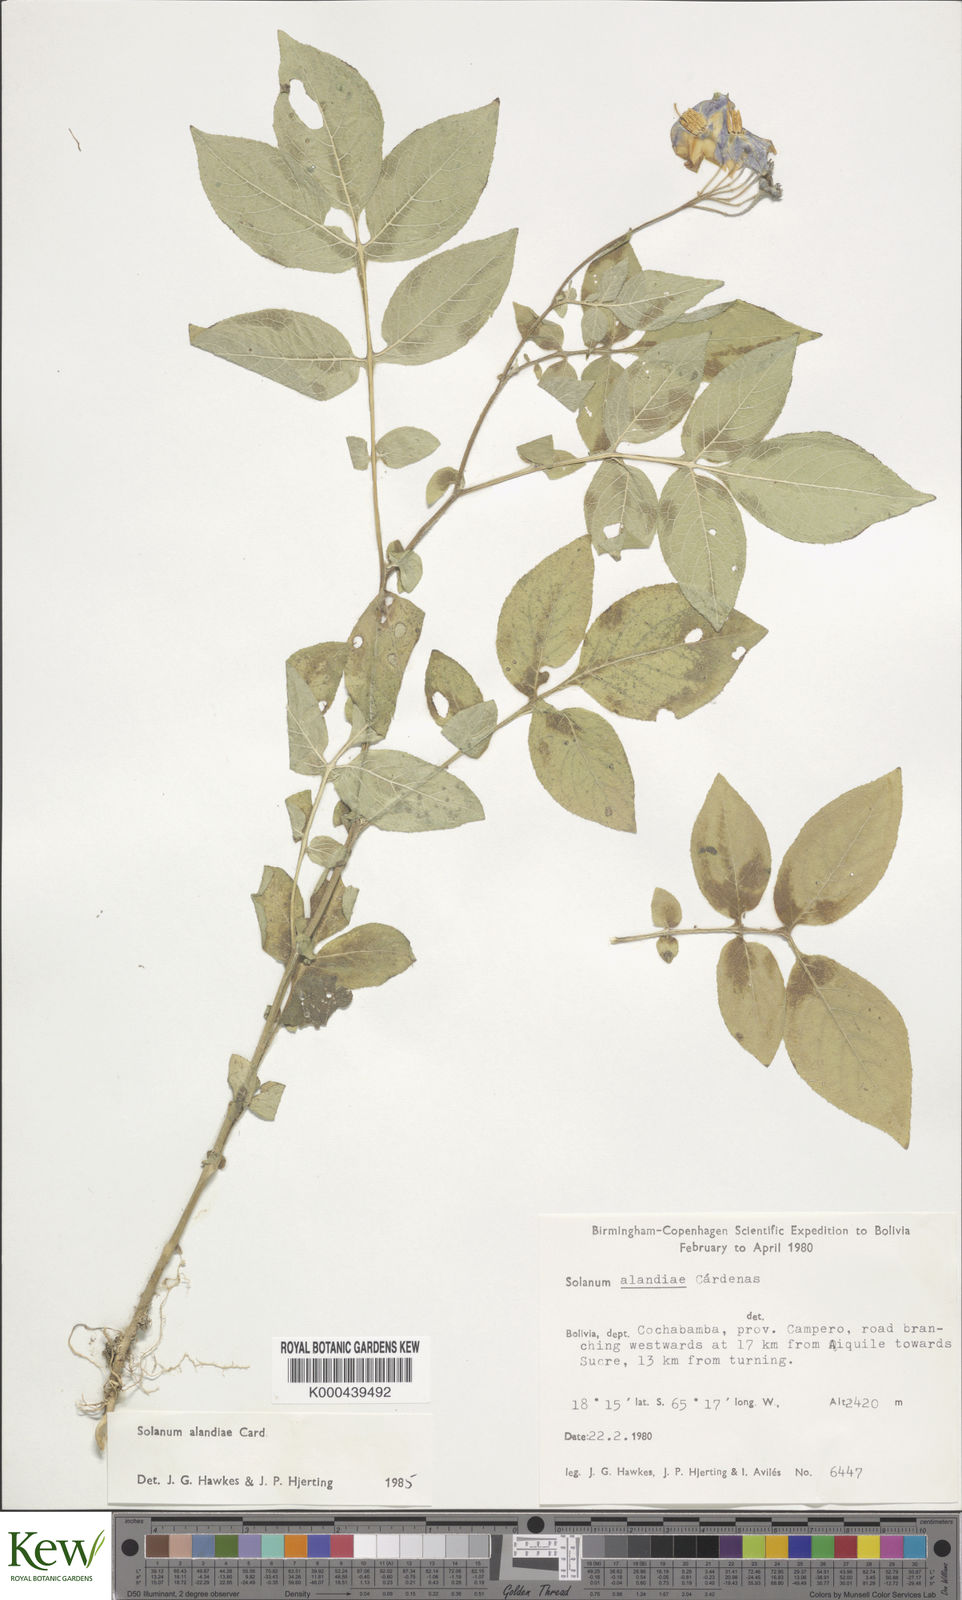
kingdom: Plantae
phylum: Tracheophyta
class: Magnoliopsida
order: Solanales
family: Solanaceae
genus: Solanum
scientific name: Solanum brevicaule
